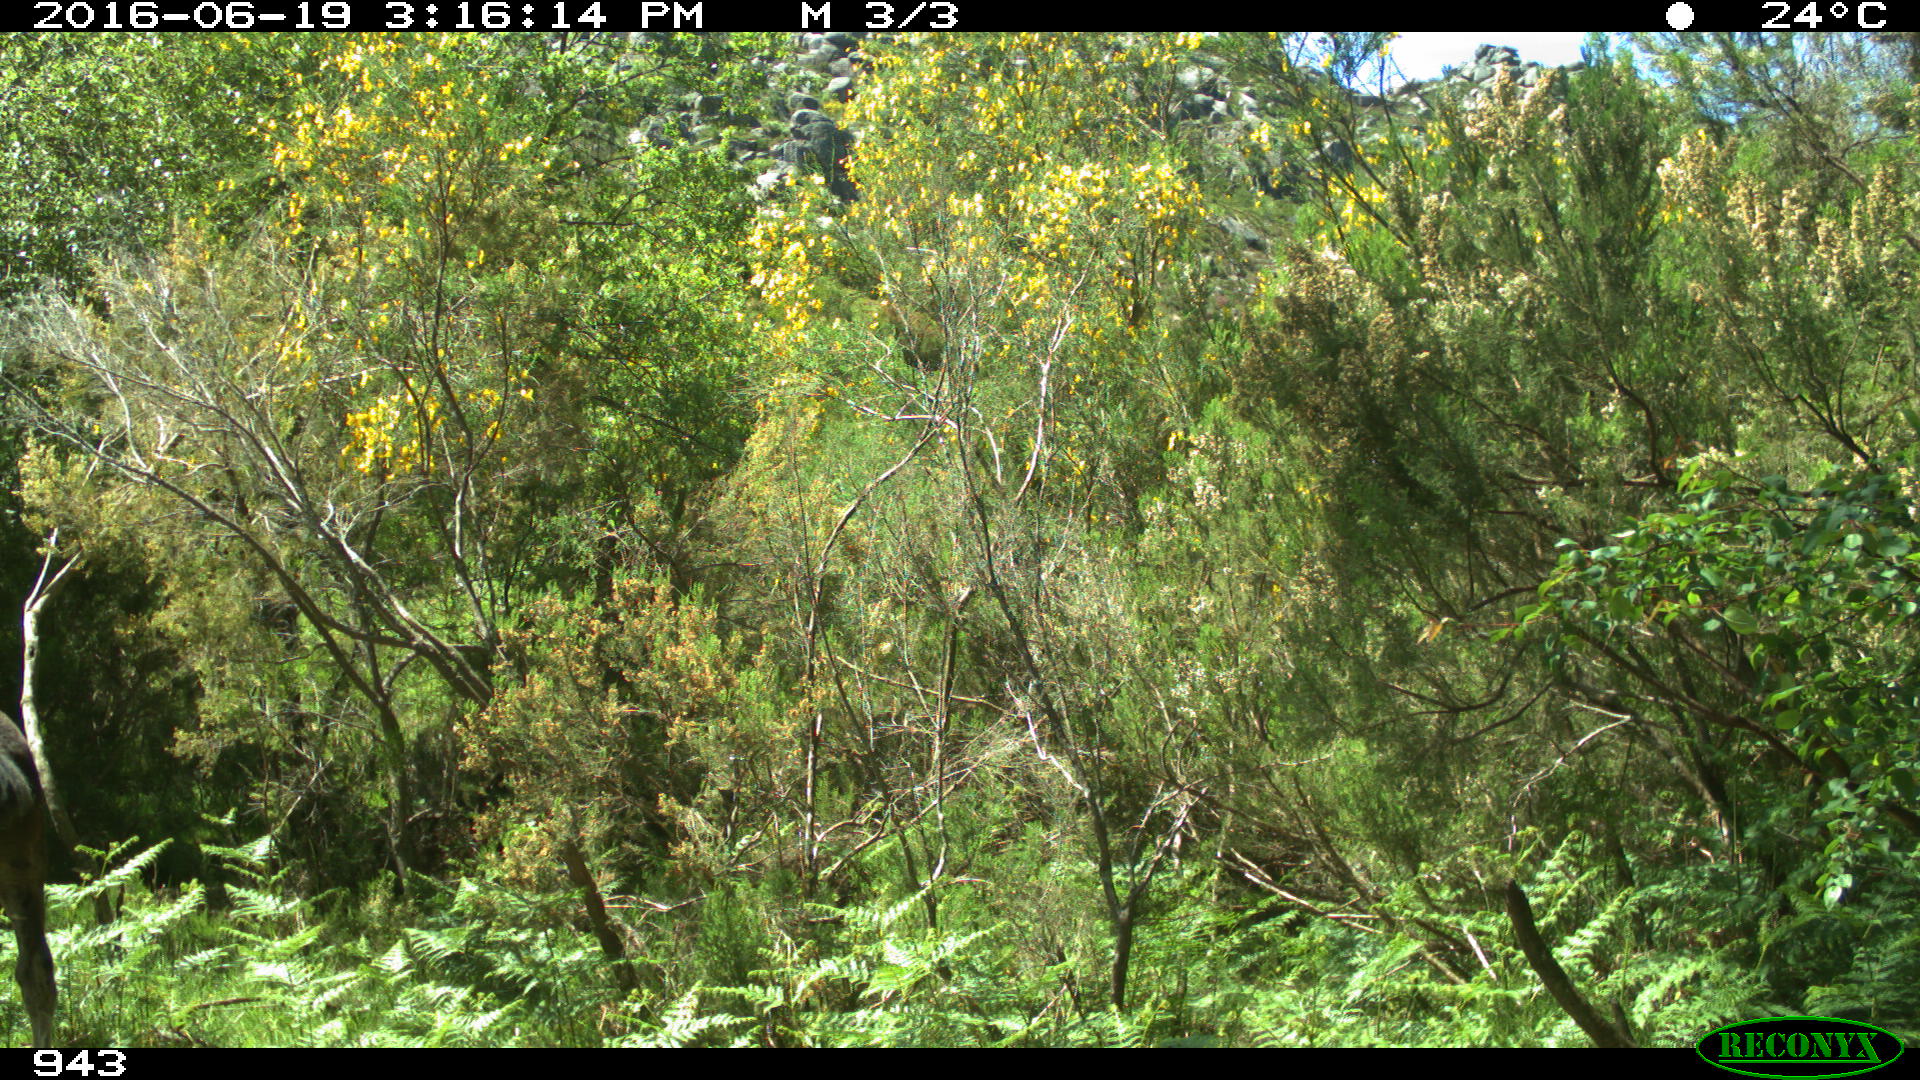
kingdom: Animalia
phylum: Chordata
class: Mammalia
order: Perissodactyla
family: Equidae
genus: Equus
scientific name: Equus caballus
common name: Horse
